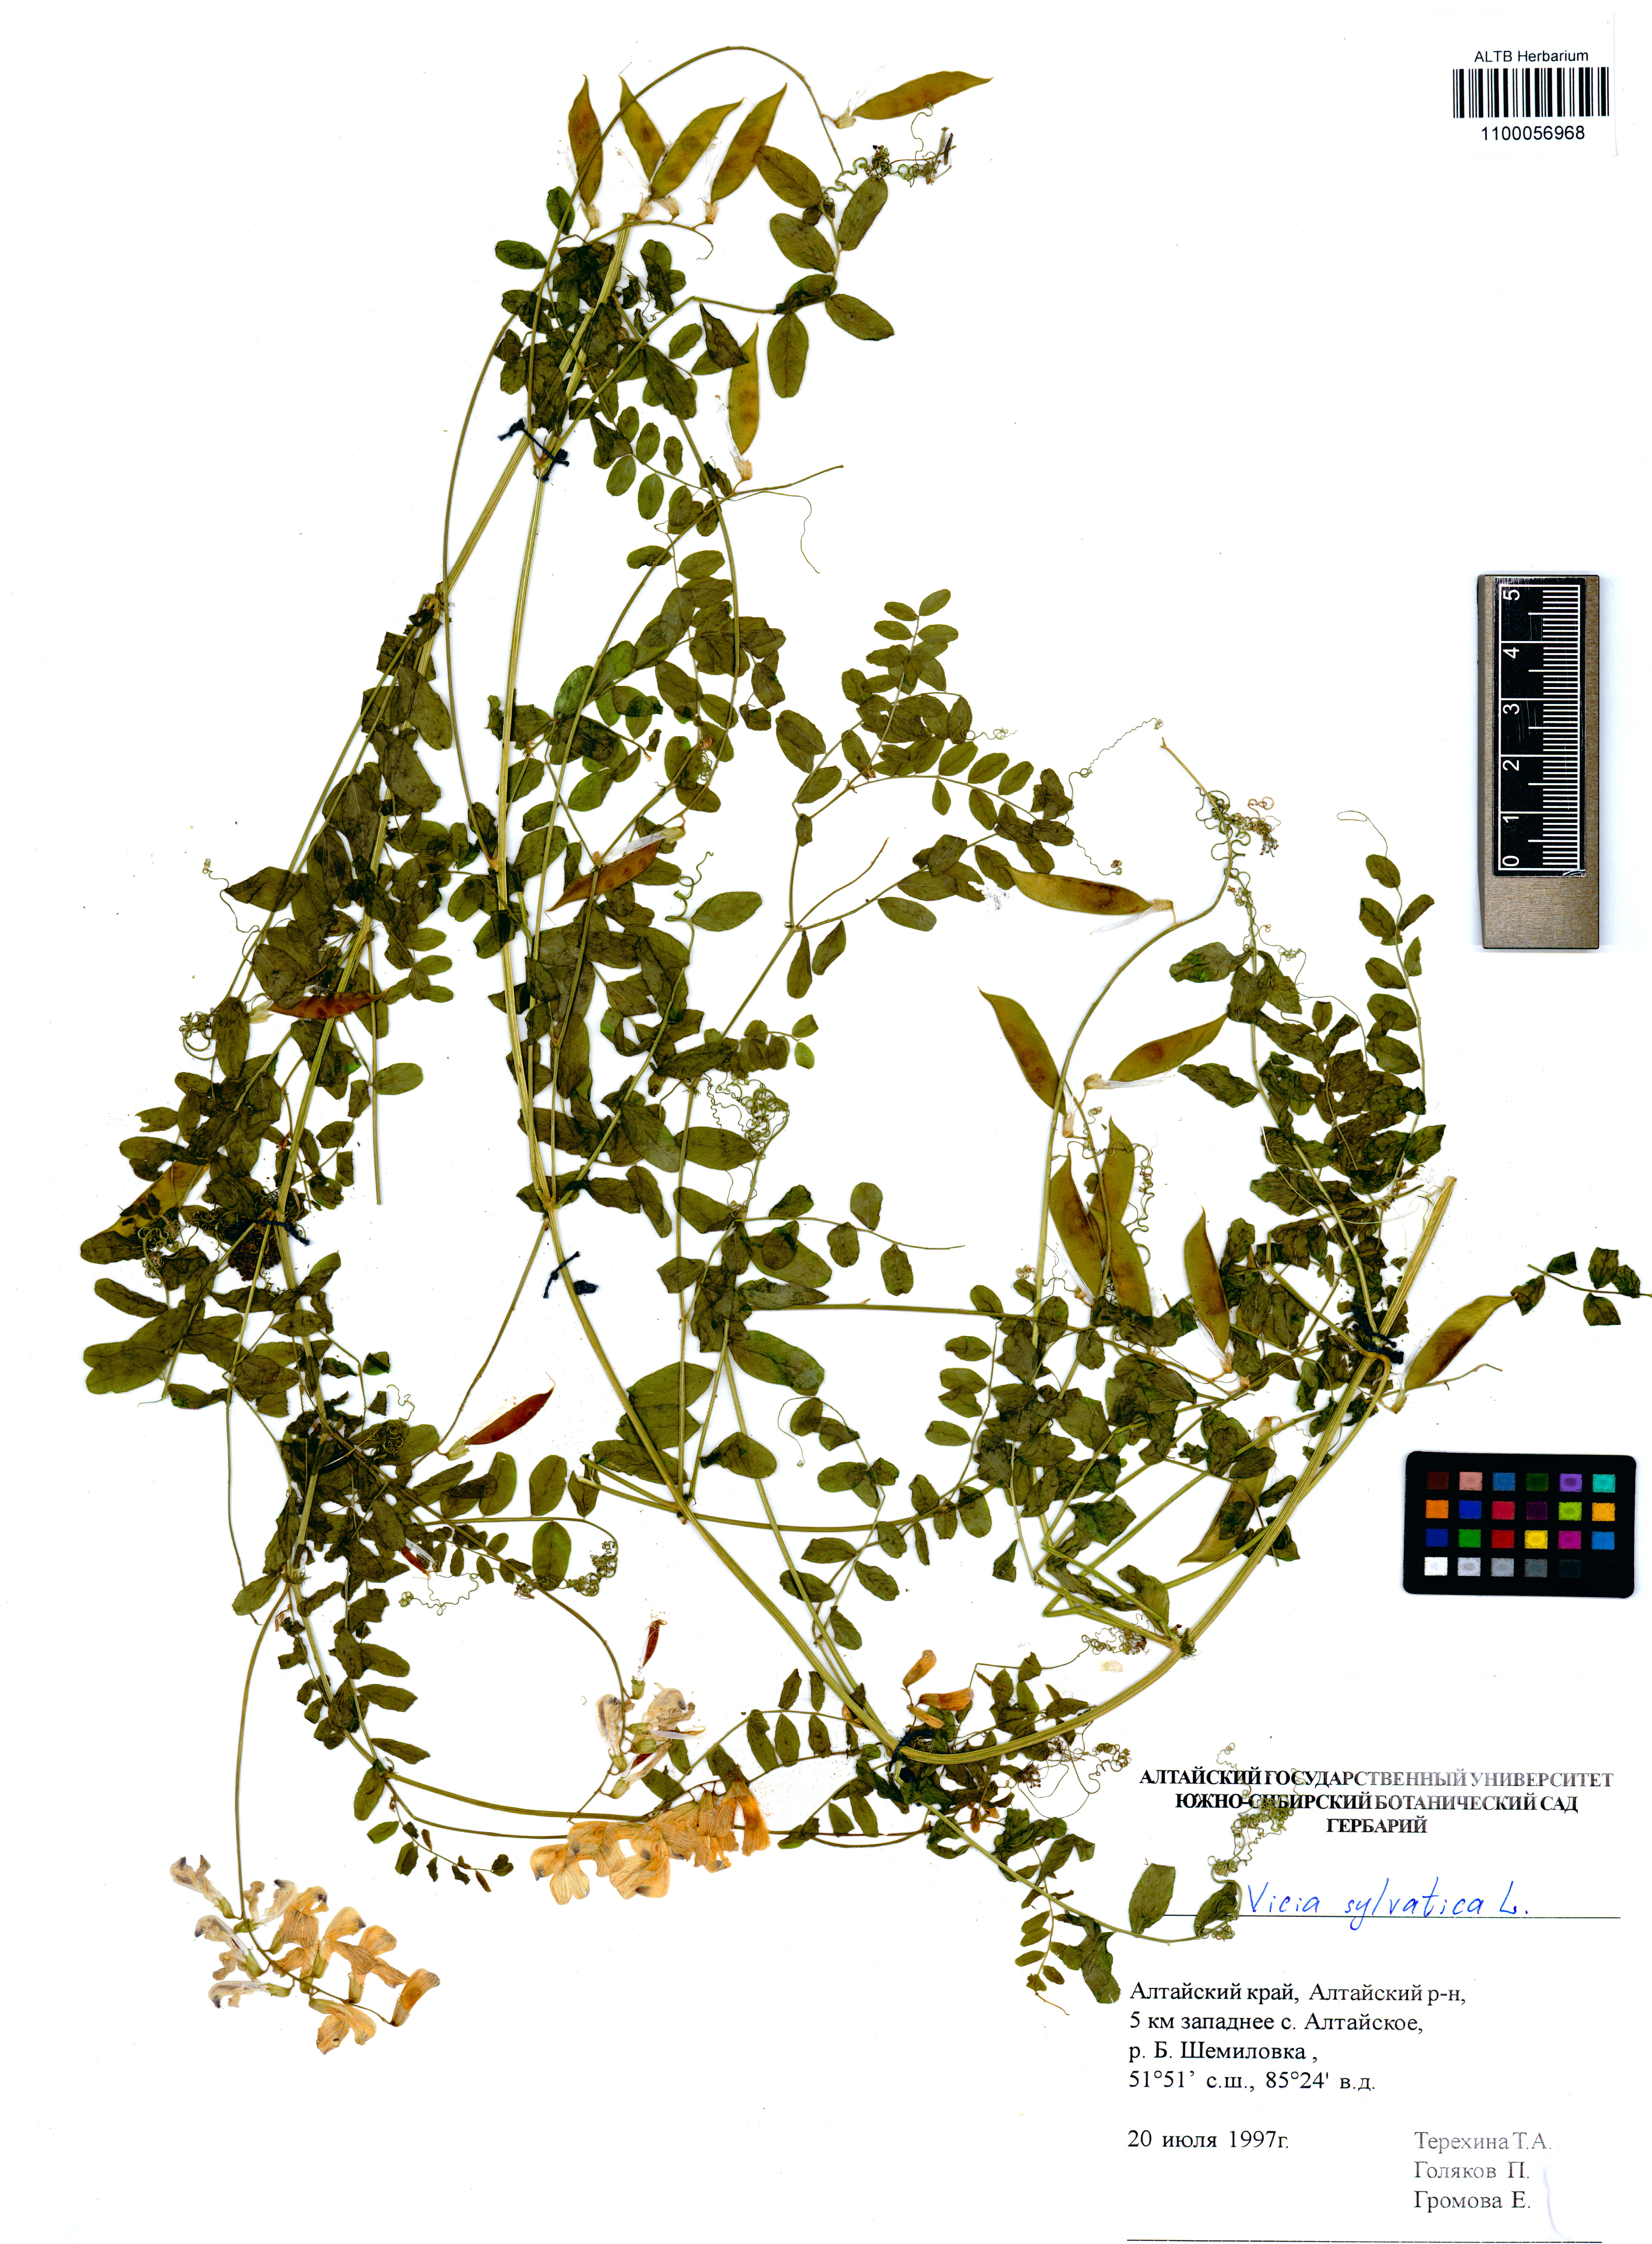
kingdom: Plantae
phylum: Tracheophyta
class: Magnoliopsida
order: Fabales
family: Fabaceae
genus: Vicia
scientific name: Vicia sylvatica
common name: Wood vetch
